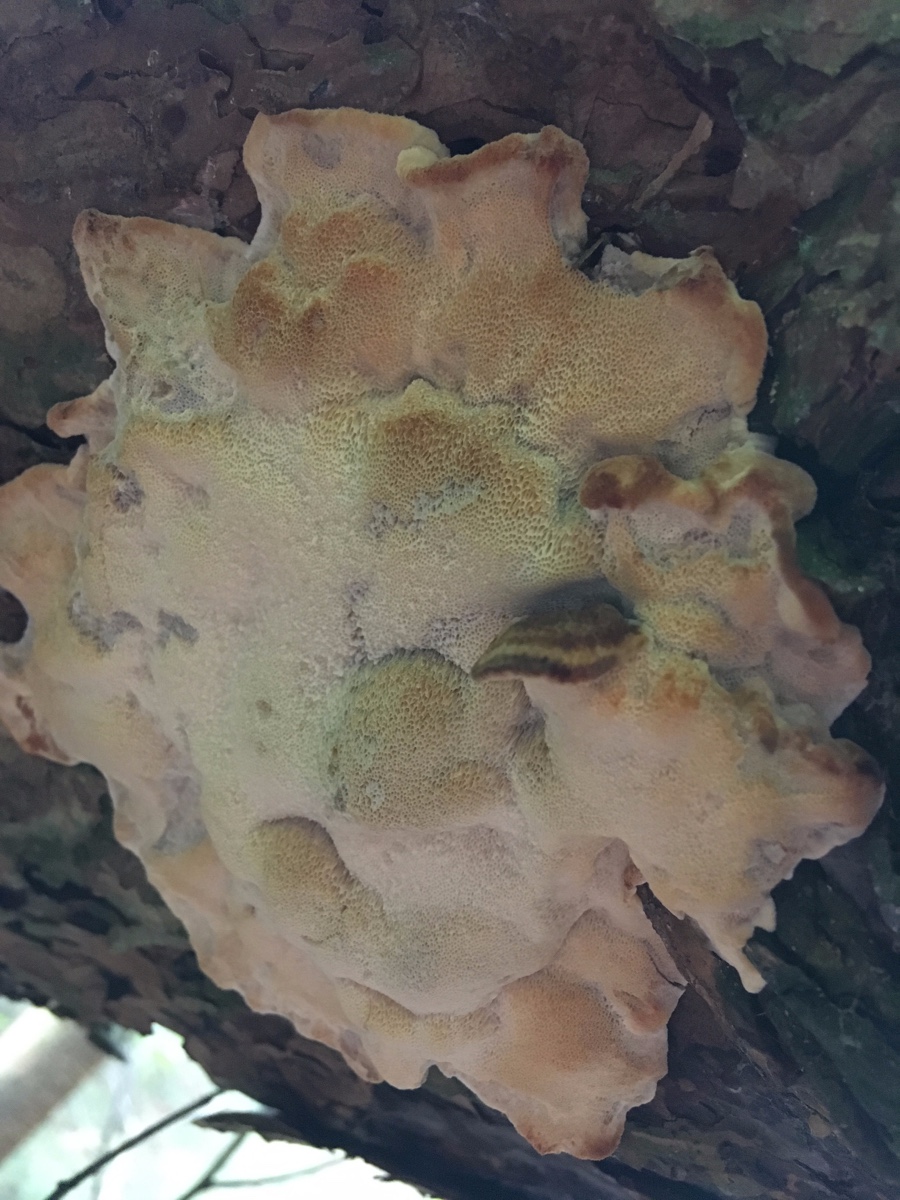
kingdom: Fungi
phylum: Basidiomycota
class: Agaricomycetes
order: Polyporales
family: Ischnodermataceae
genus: Ischnoderma
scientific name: Ischnoderma benzoinum
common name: gran-tjæreporesvamp
